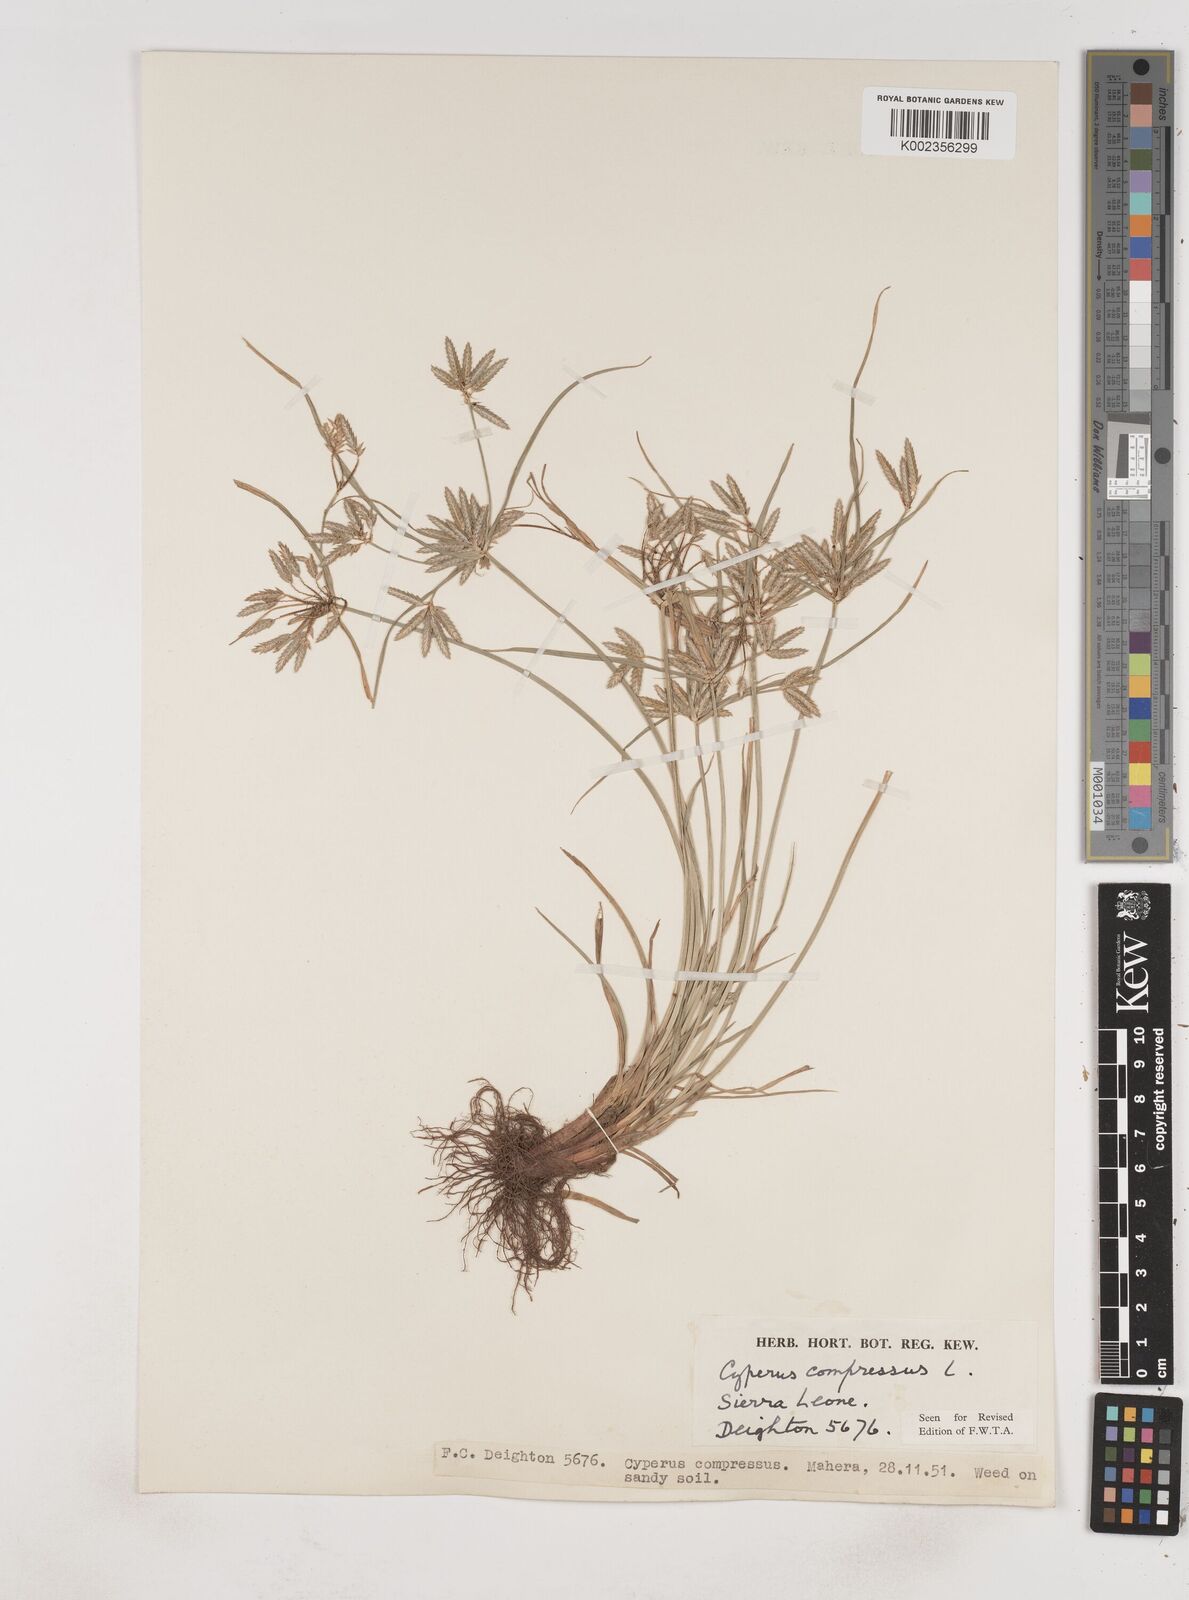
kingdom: Plantae
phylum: Tracheophyta
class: Liliopsida
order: Poales
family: Cyperaceae
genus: Cyperus
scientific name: Cyperus compressus
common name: Poorland flatsedge
